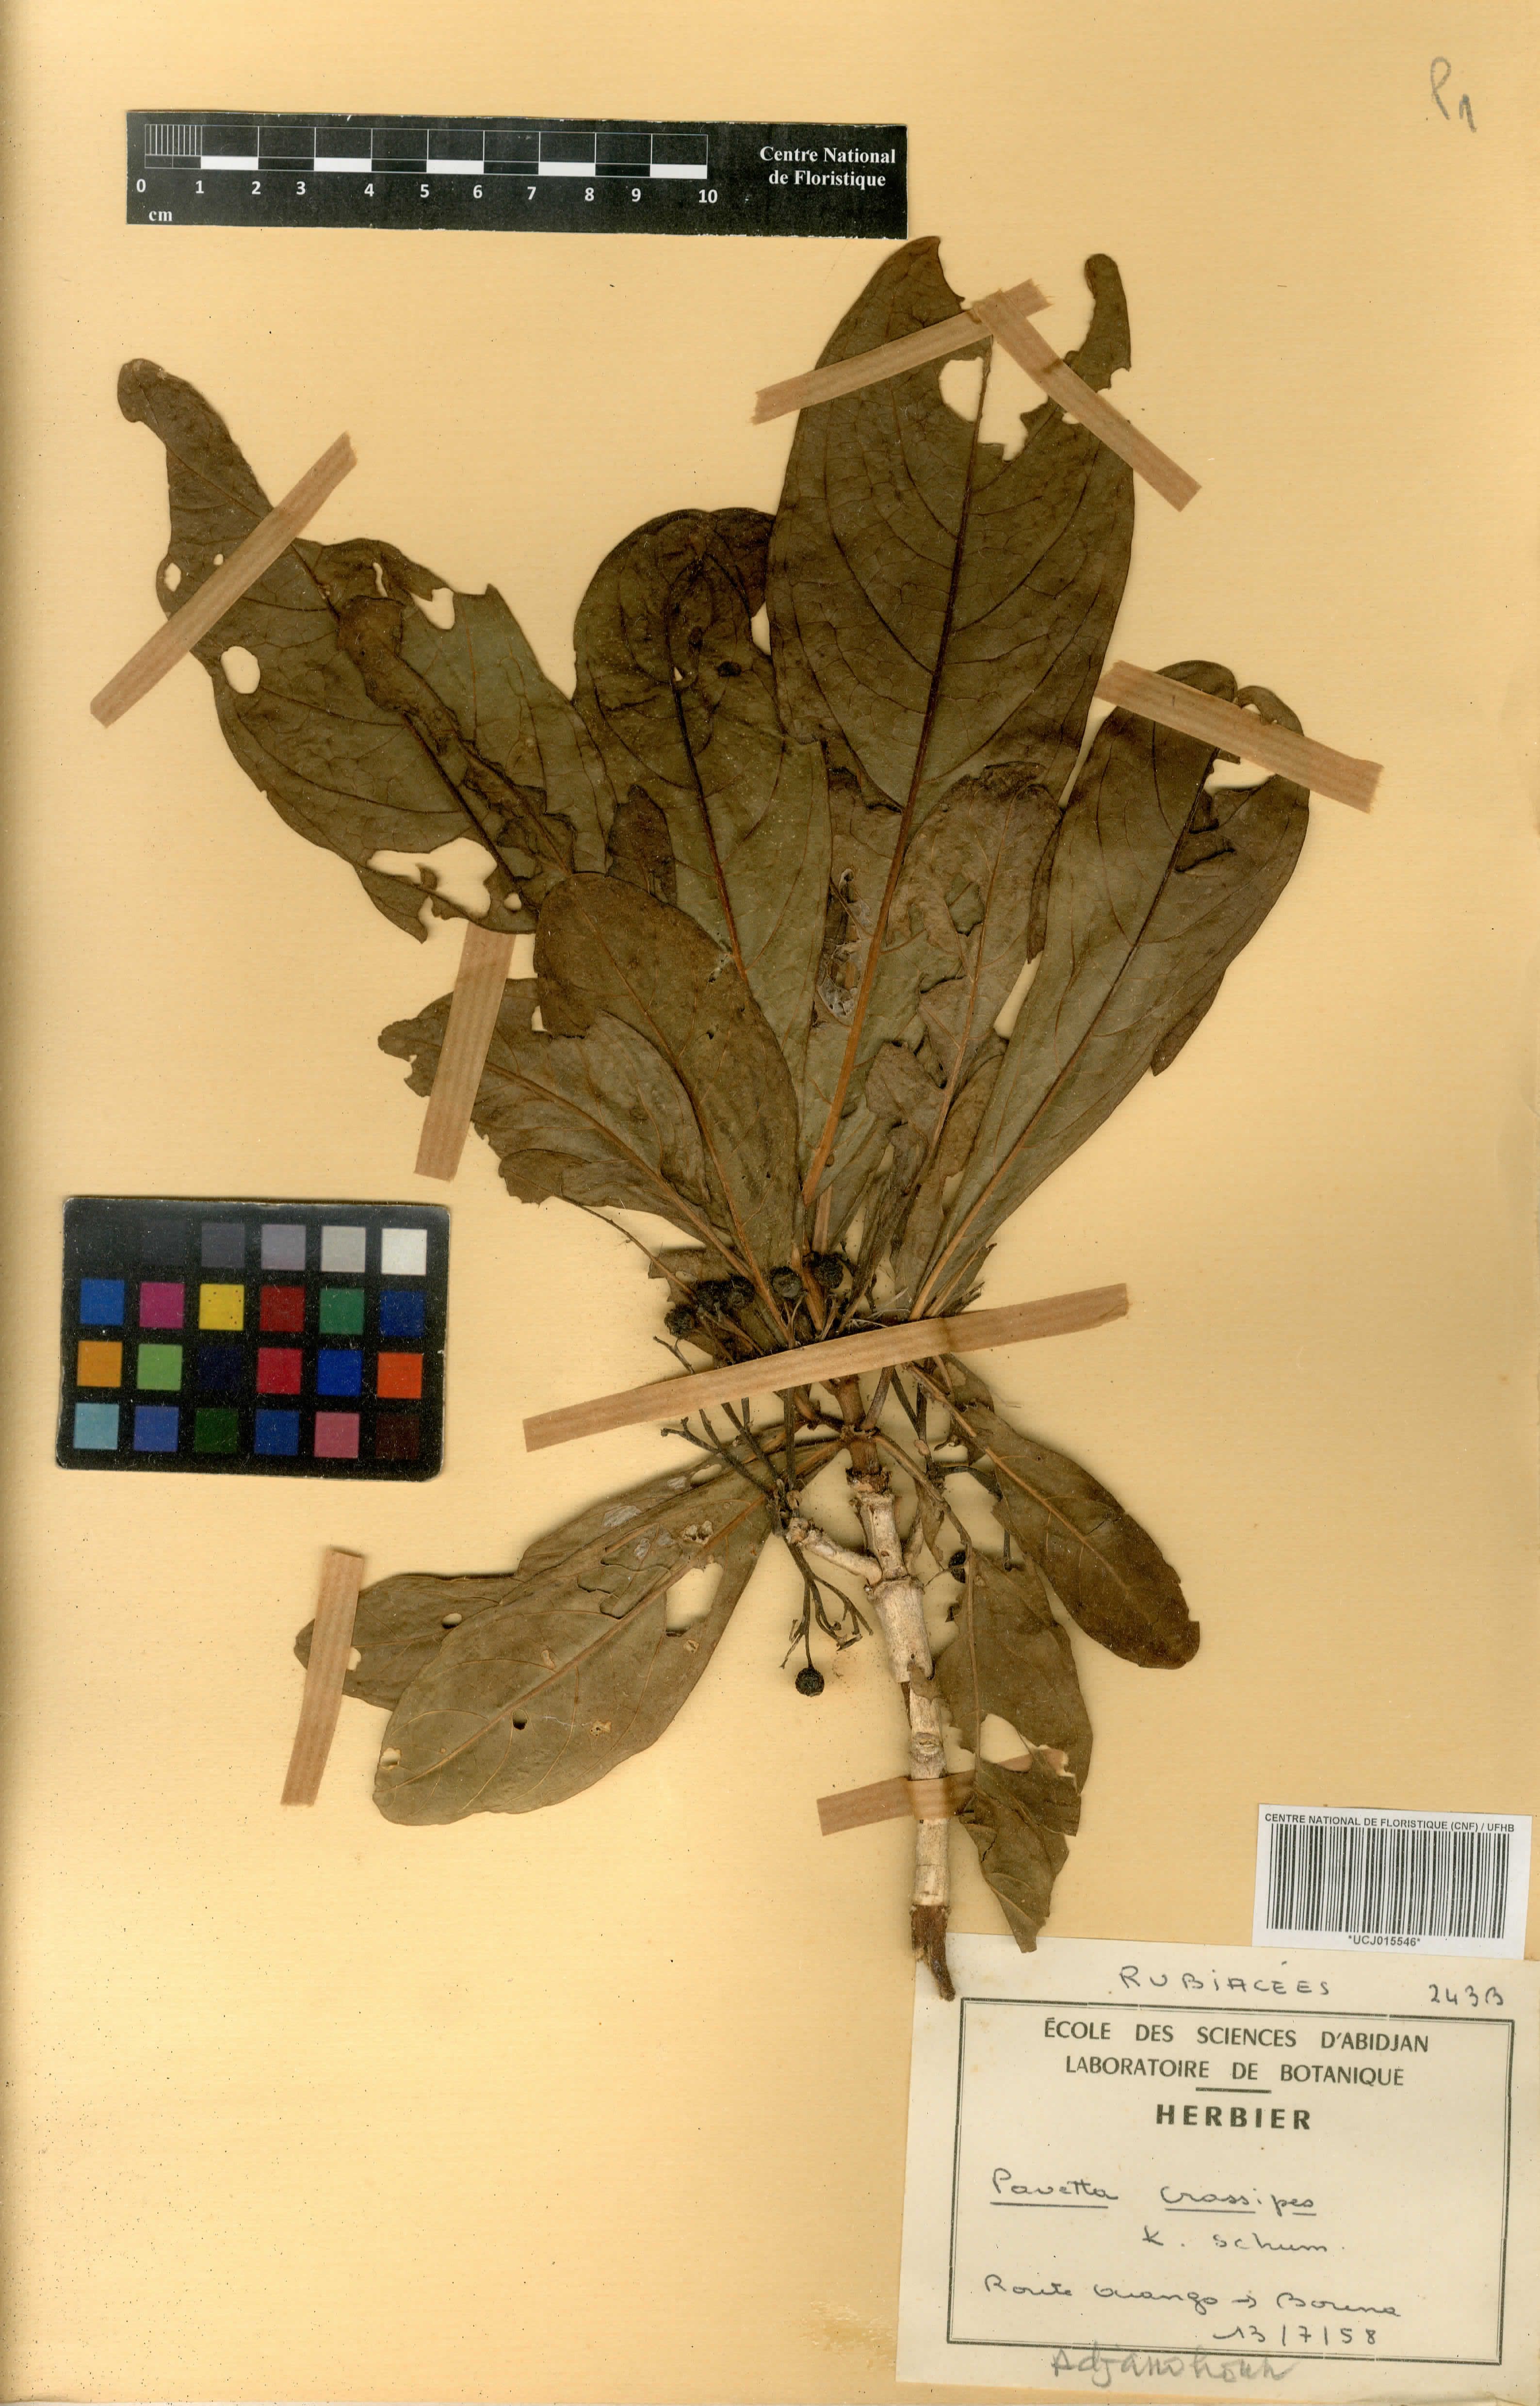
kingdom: Plantae
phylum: Tracheophyta
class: Magnoliopsida
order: Gentianales
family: Rubiaceae
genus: Pavetta
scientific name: Pavetta crassipes
